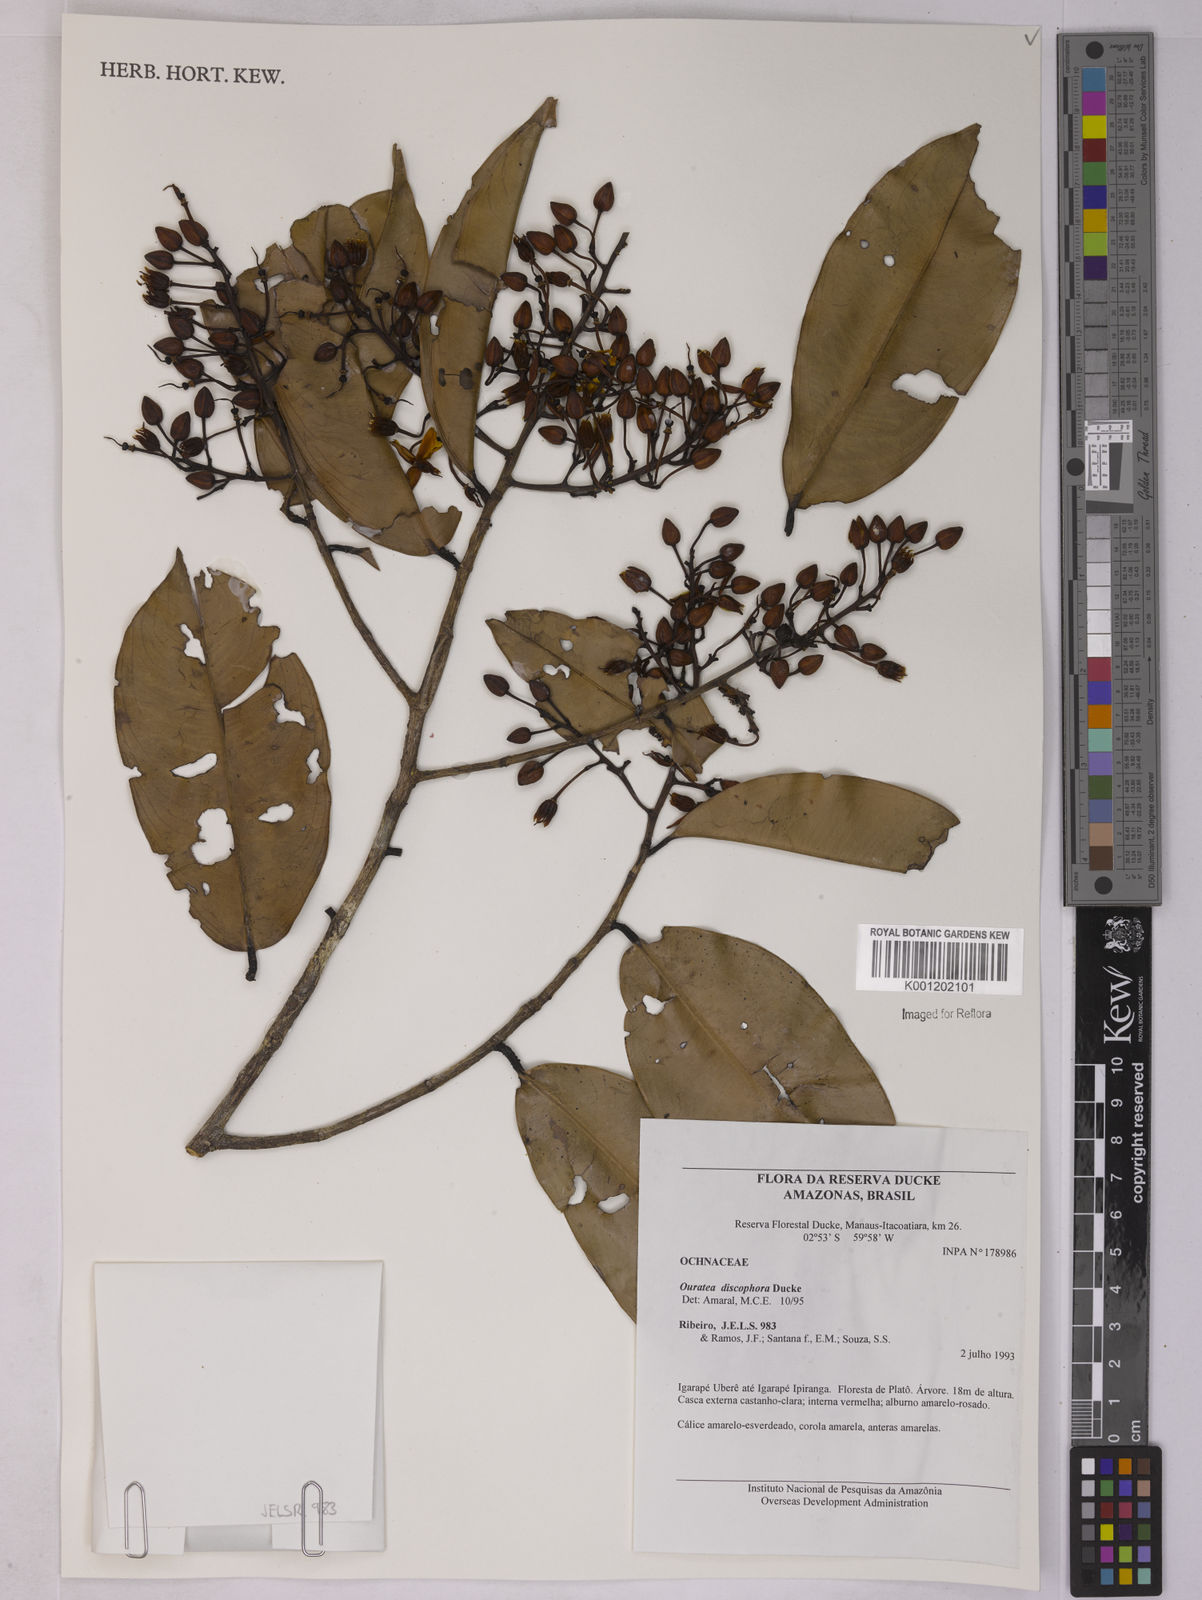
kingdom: Plantae
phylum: Tracheophyta
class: Magnoliopsida
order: Malpighiales
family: Ochnaceae
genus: Ouratea
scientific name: Ouratea discophora
